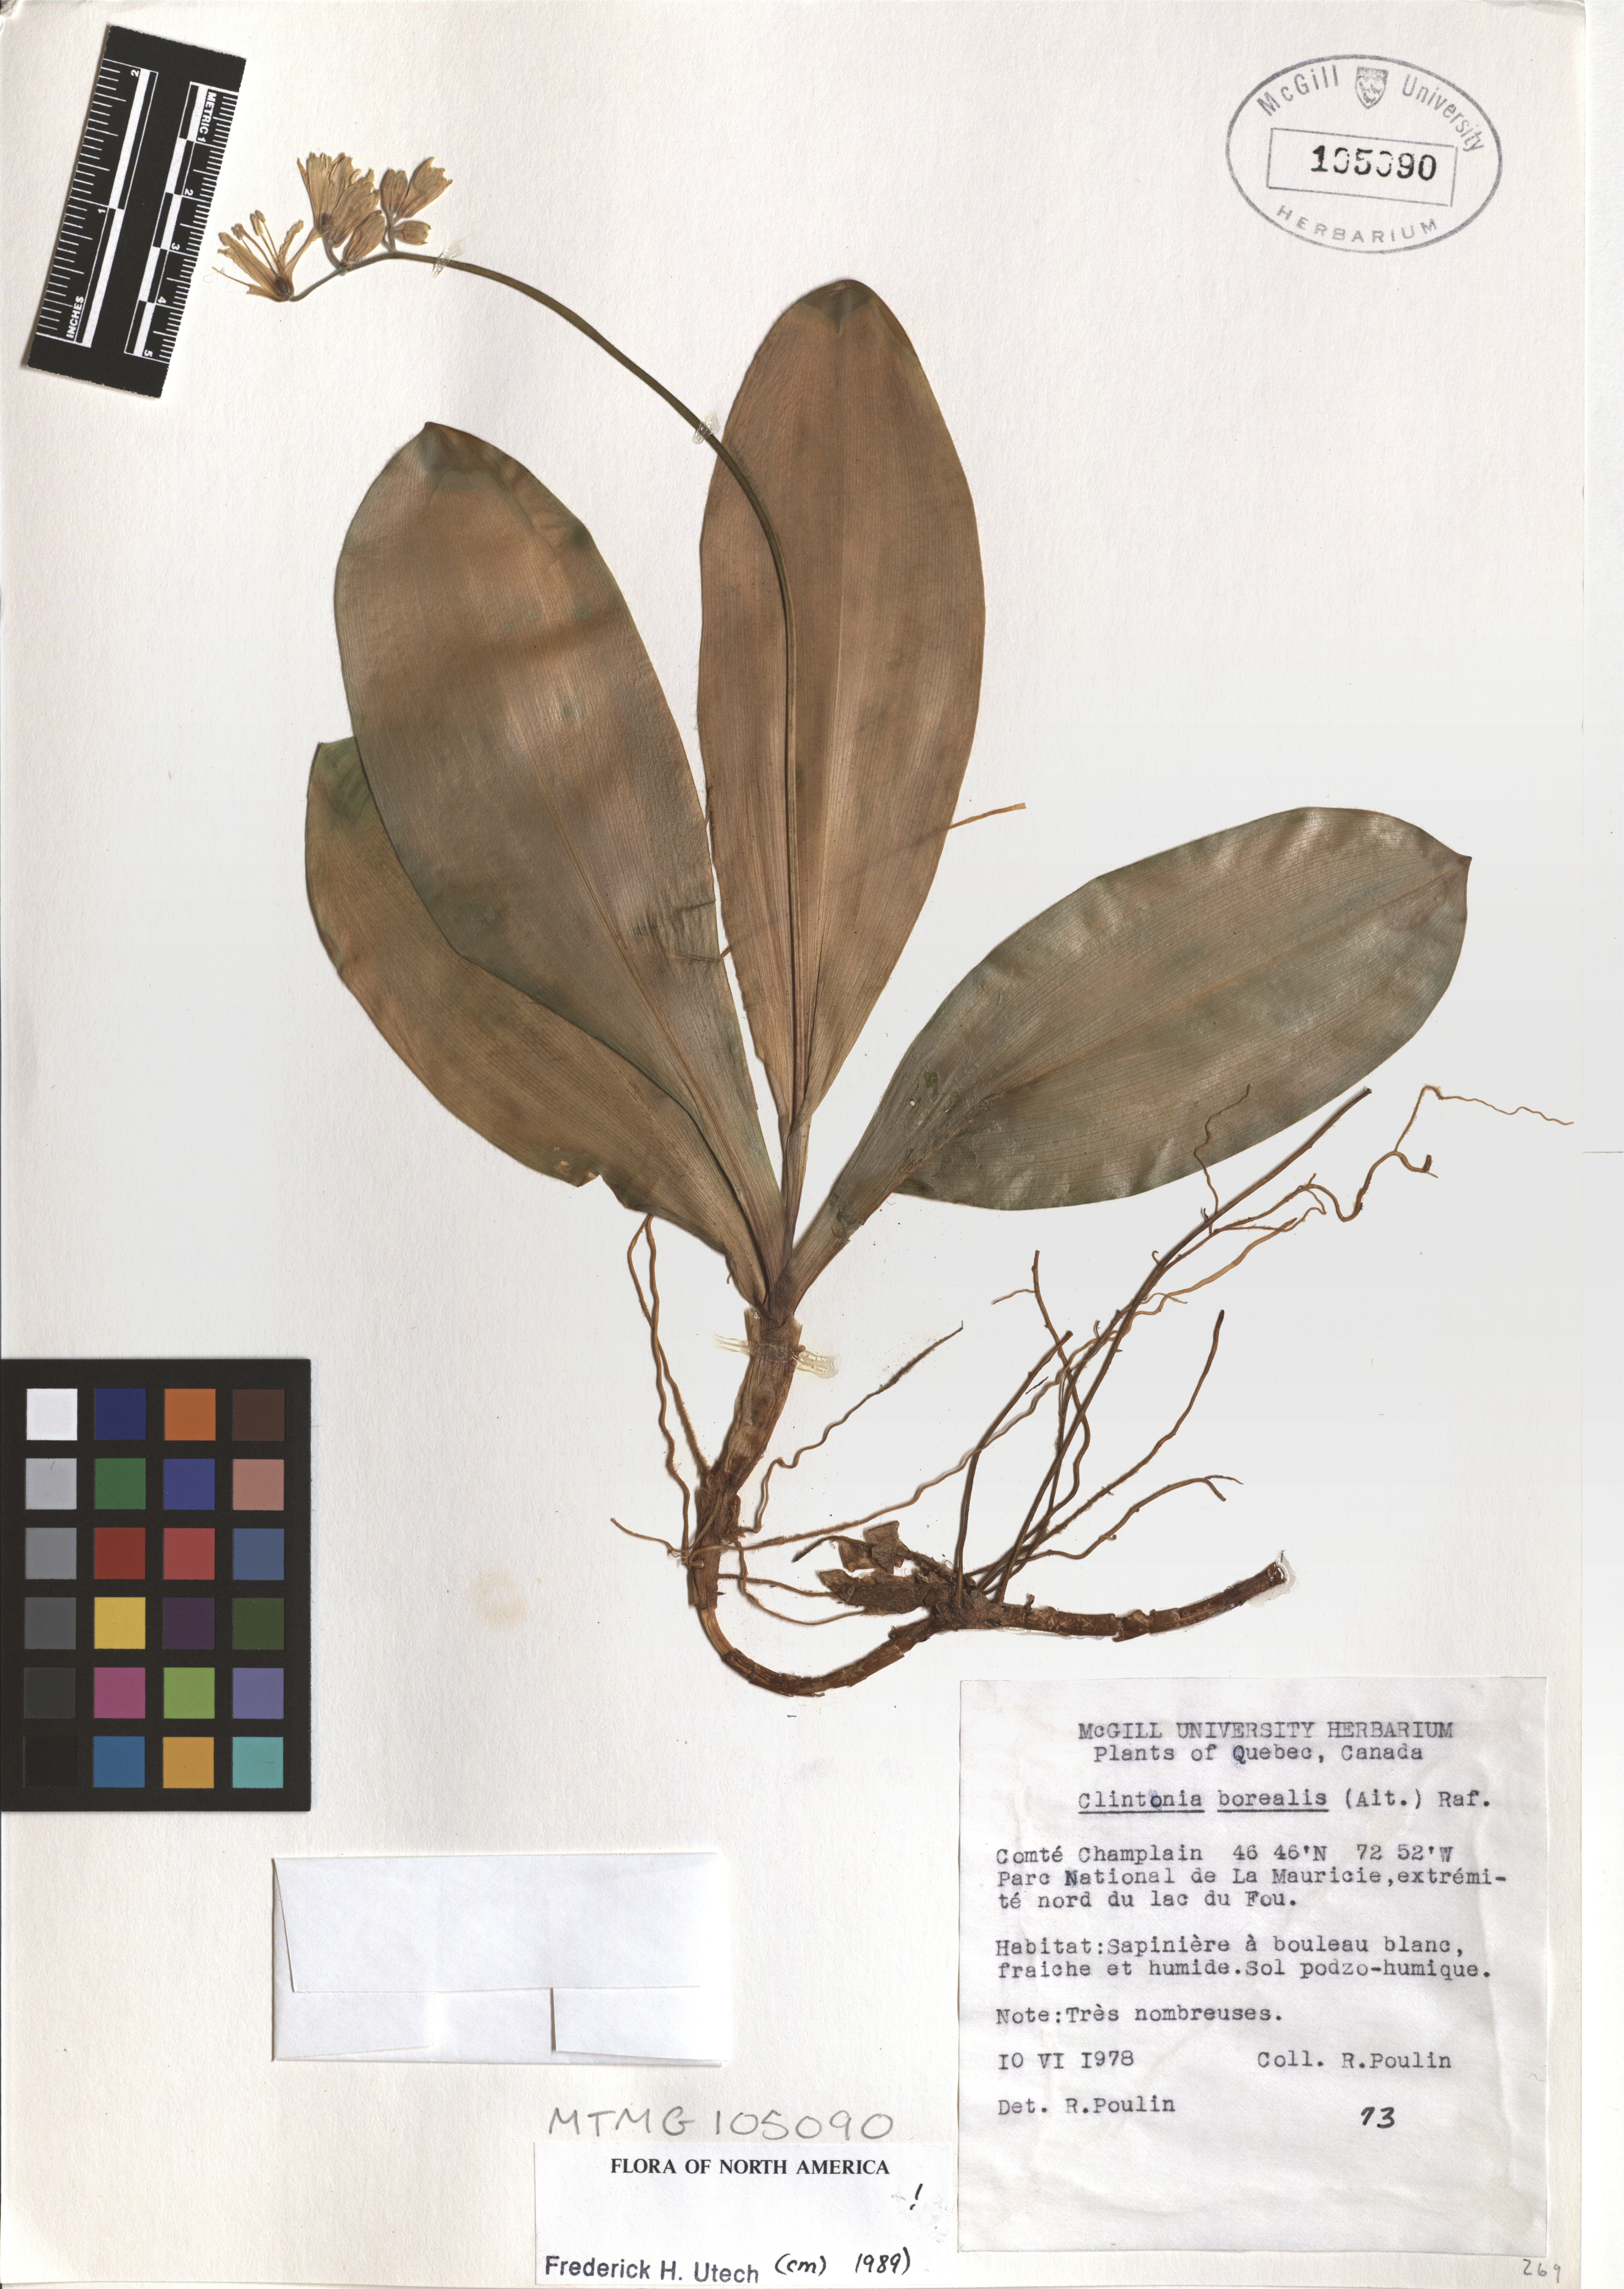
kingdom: Plantae
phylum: Tracheophyta
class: Liliopsida
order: Liliales
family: Liliaceae
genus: Clintonia
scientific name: Clintonia borealis
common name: Yellow clintonia
